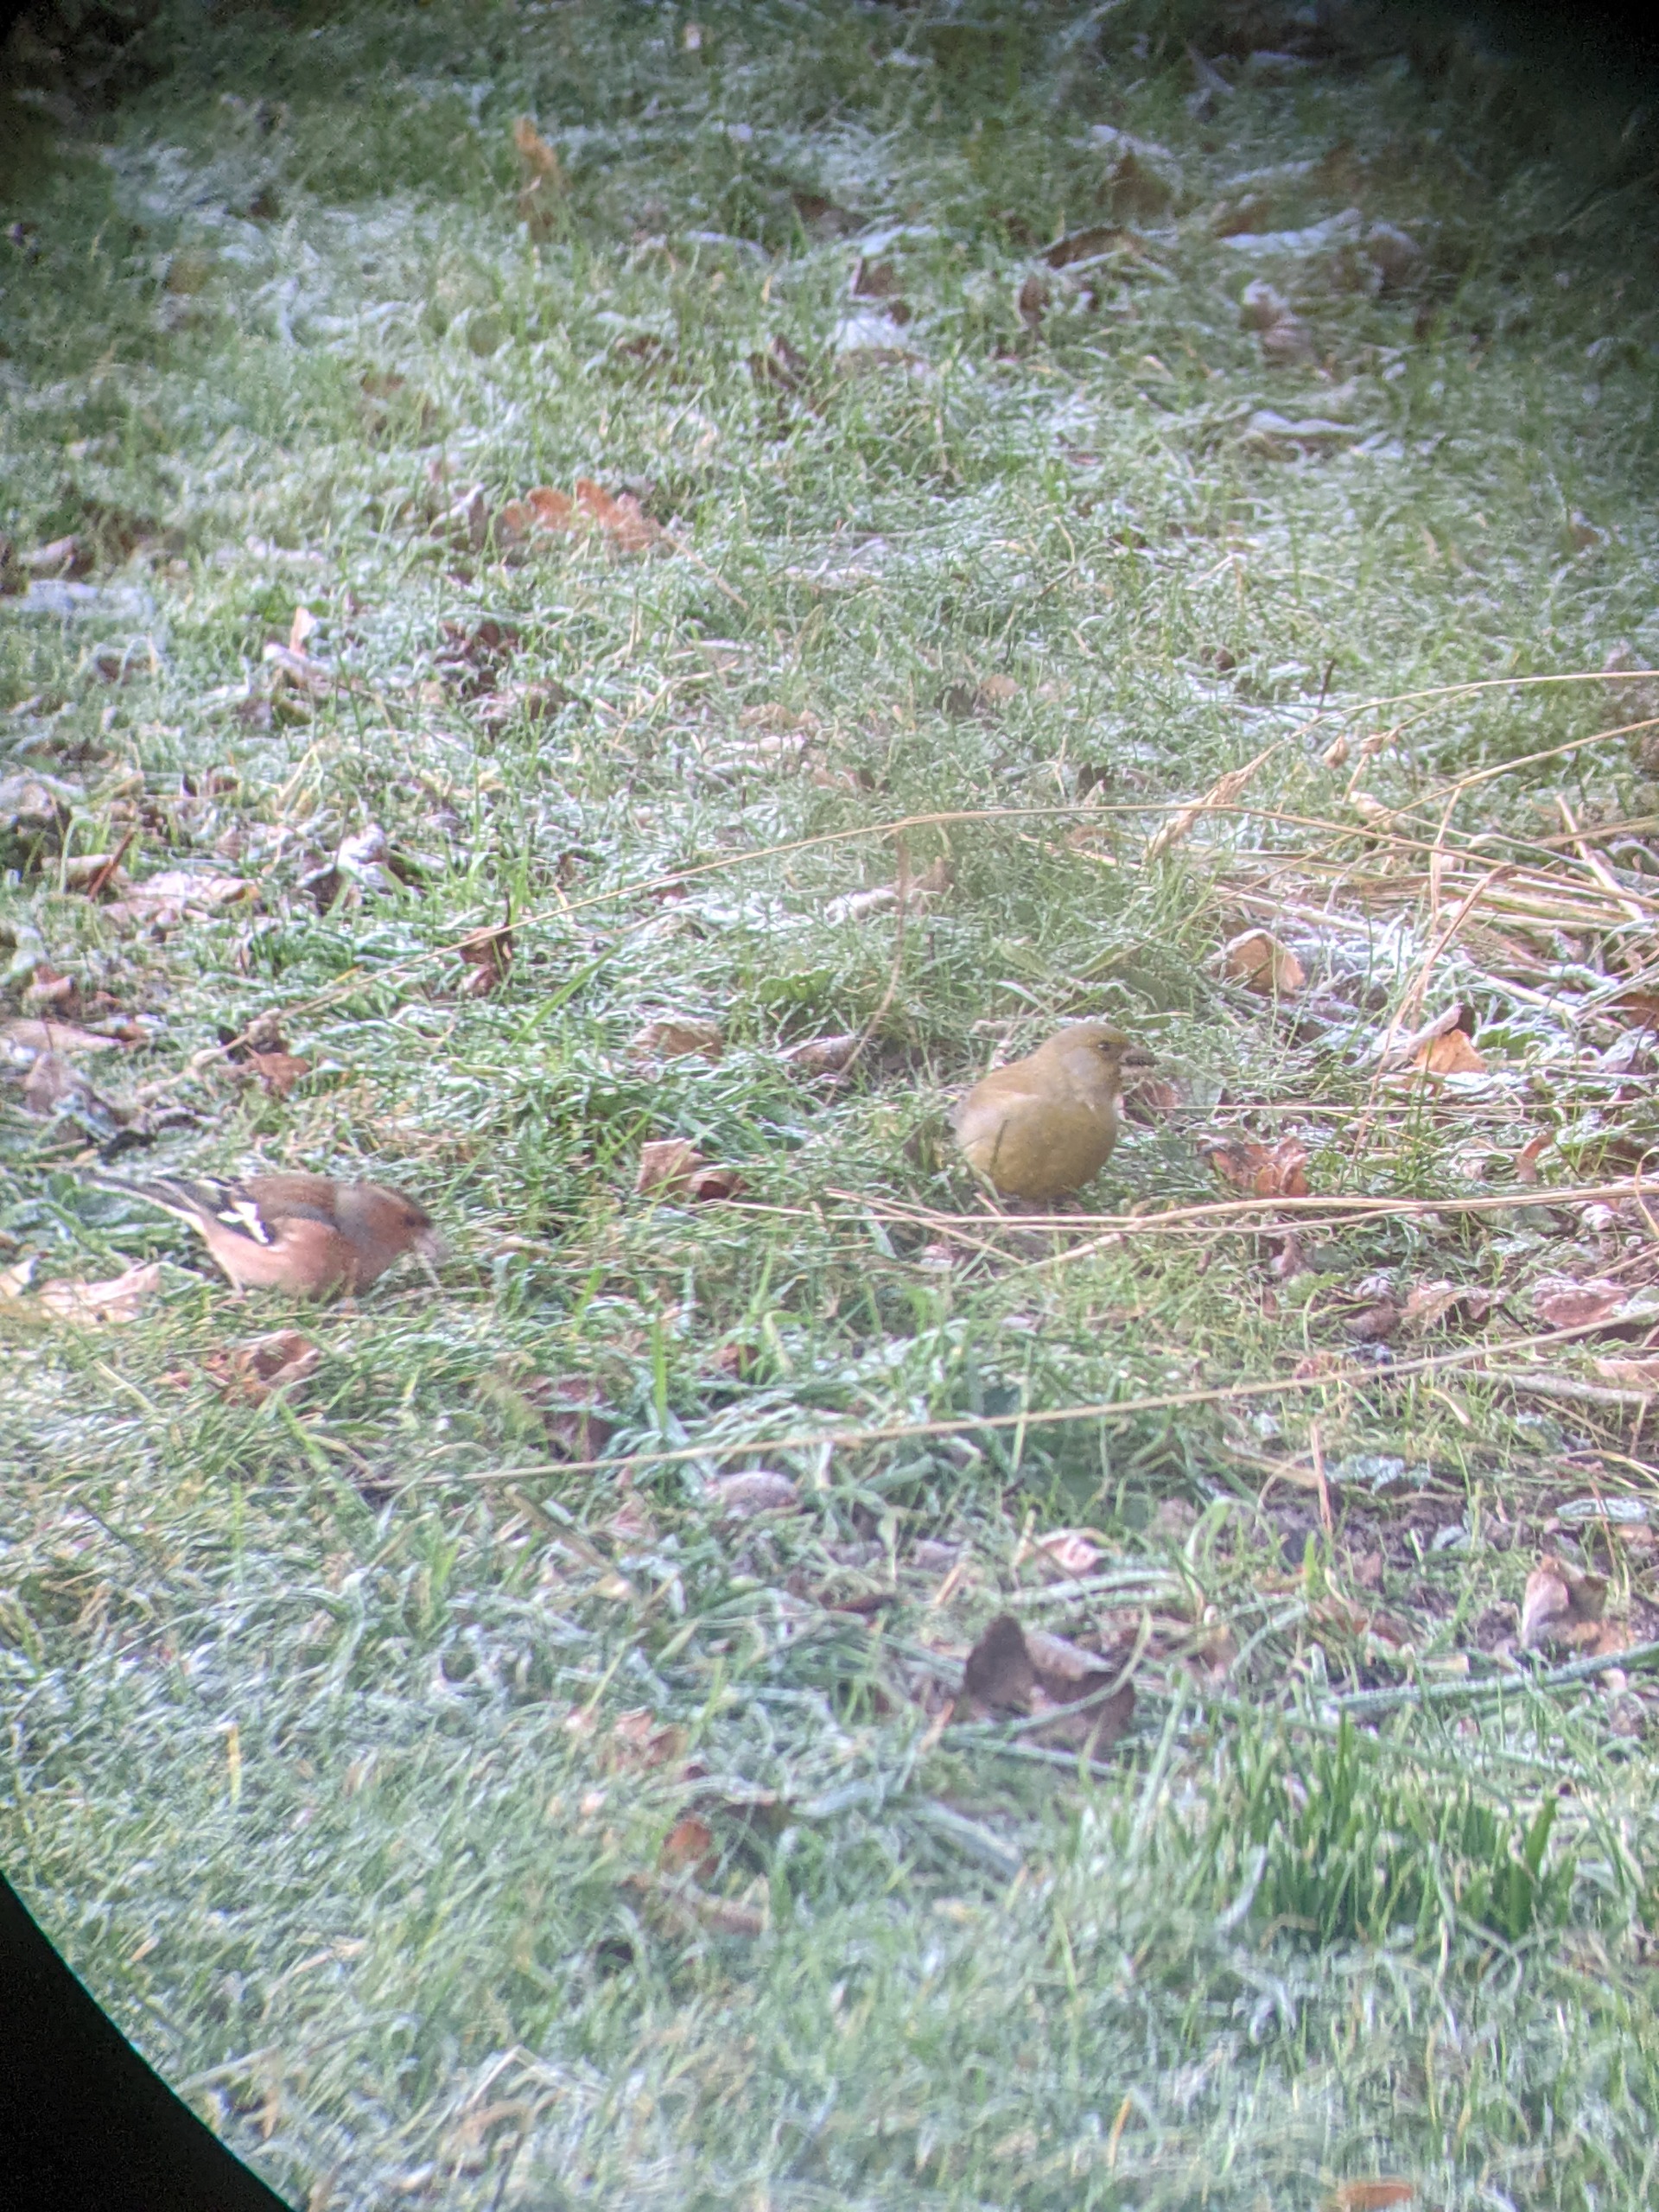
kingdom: Plantae
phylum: Tracheophyta
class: Liliopsida
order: Poales
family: Poaceae
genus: Chloris
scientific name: Chloris chloris
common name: Grønirisk
